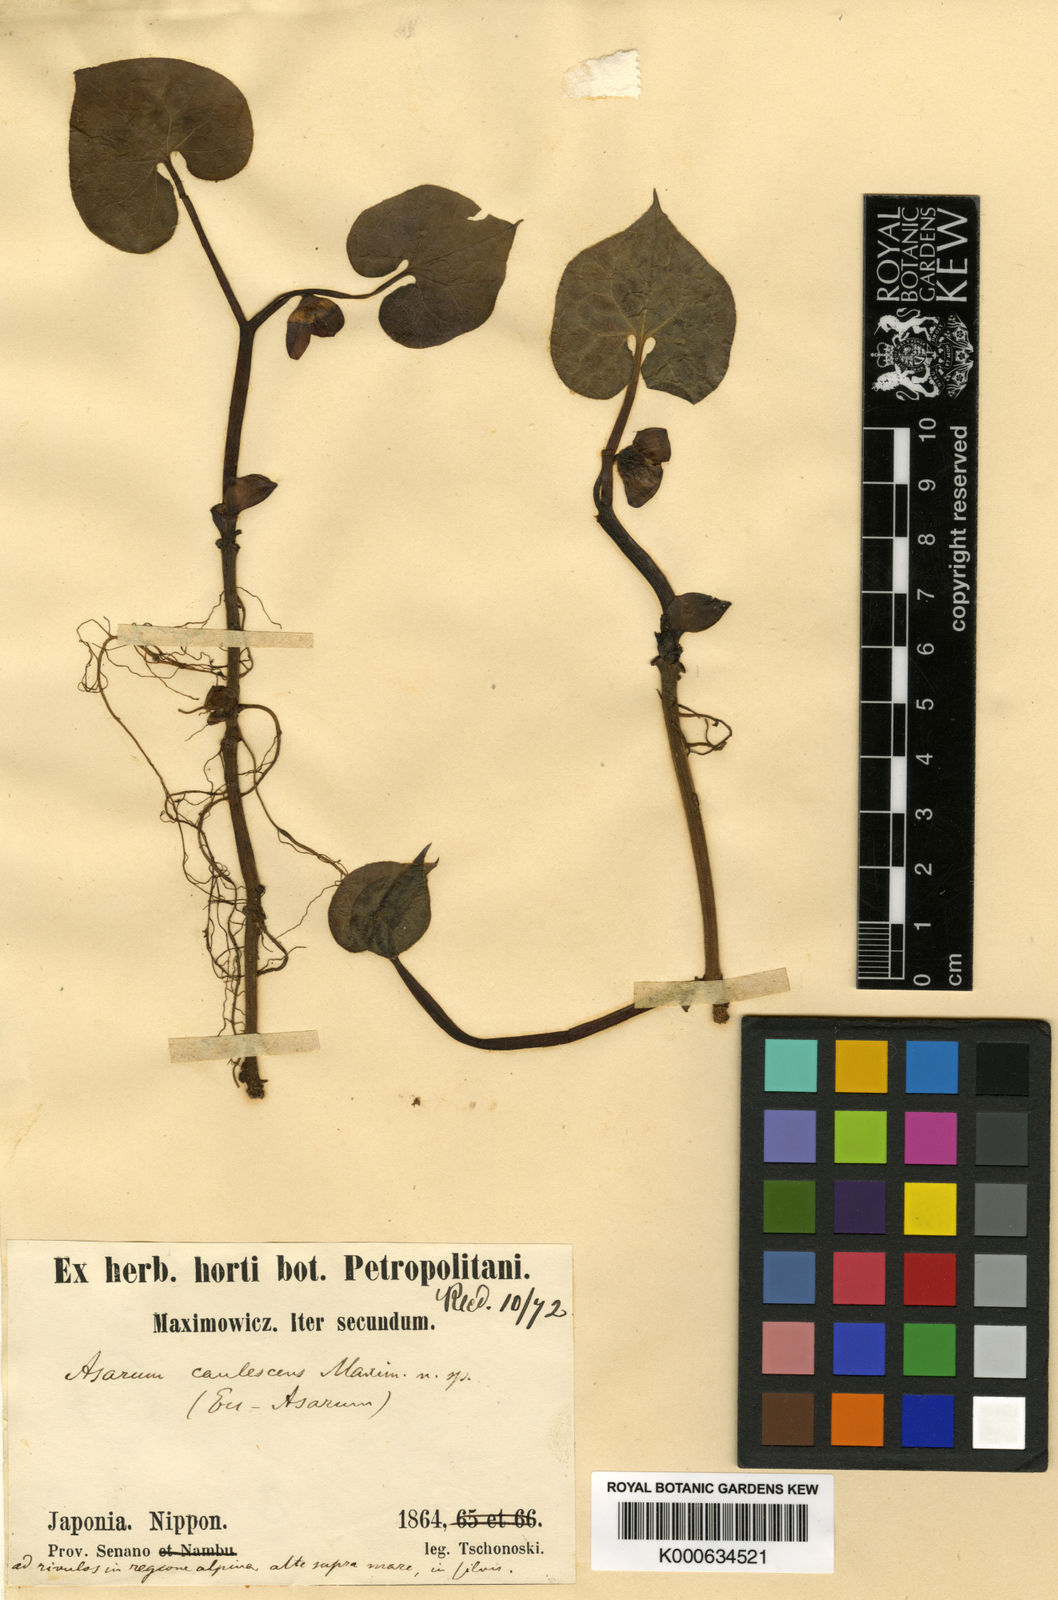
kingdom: Plantae
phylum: Tracheophyta
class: Magnoliopsida
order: Piperales
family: Aristolochiaceae
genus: Asarum
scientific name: Asarum caulescens
